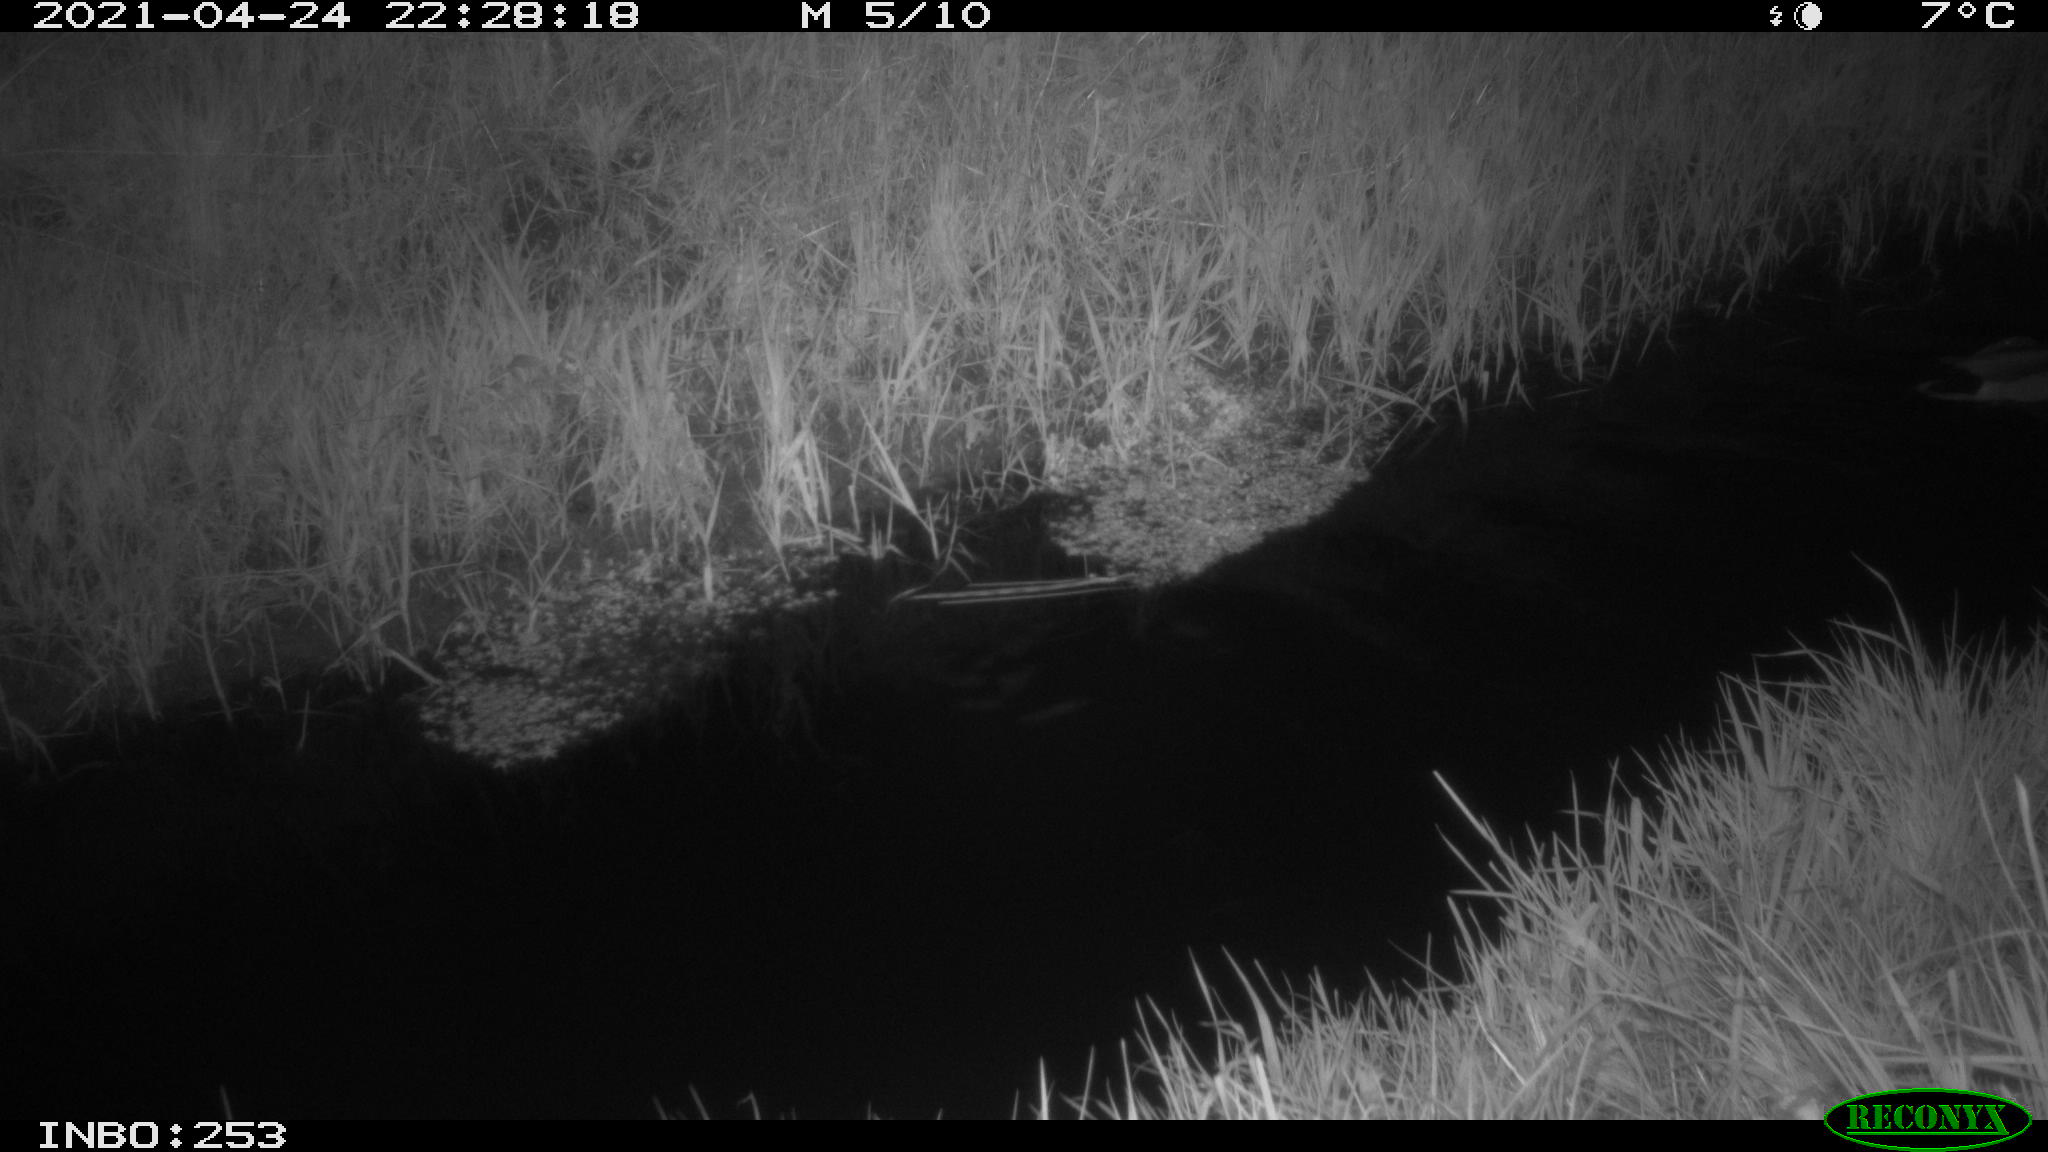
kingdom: Animalia
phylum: Chordata
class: Aves
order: Anseriformes
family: Anatidae
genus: Anas
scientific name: Anas platyrhynchos
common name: Mallard
